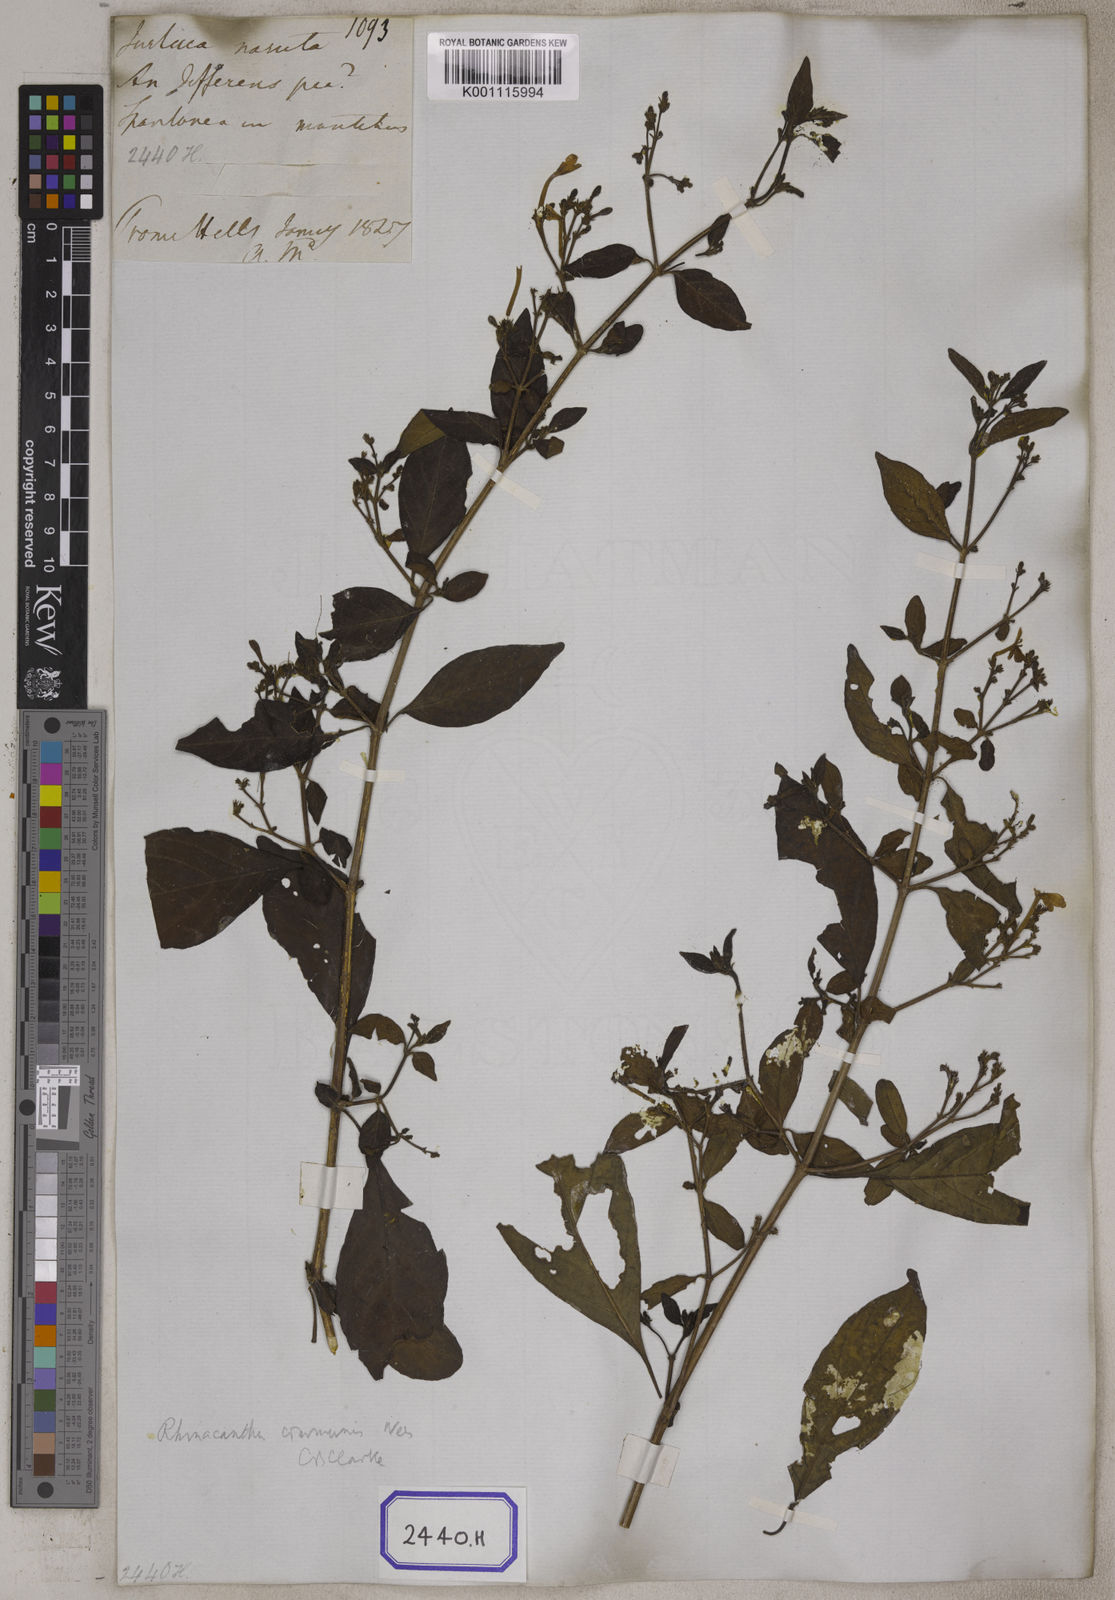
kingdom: Plantae
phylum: Tracheophyta
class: Magnoliopsida
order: Lamiales
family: Acanthaceae
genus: Rhinacanthus
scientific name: Rhinacanthus nasutus
